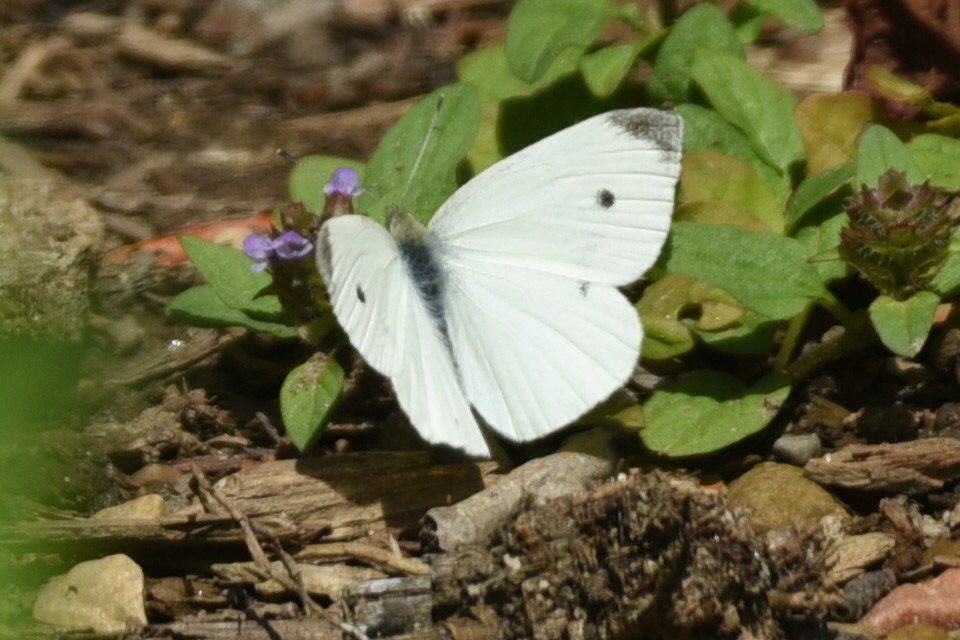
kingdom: Animalia
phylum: Arthropoda
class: Insecta
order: Lepidoptera
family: Pieridae
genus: Pieris
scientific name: Pieris rapae
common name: Cabbage White
